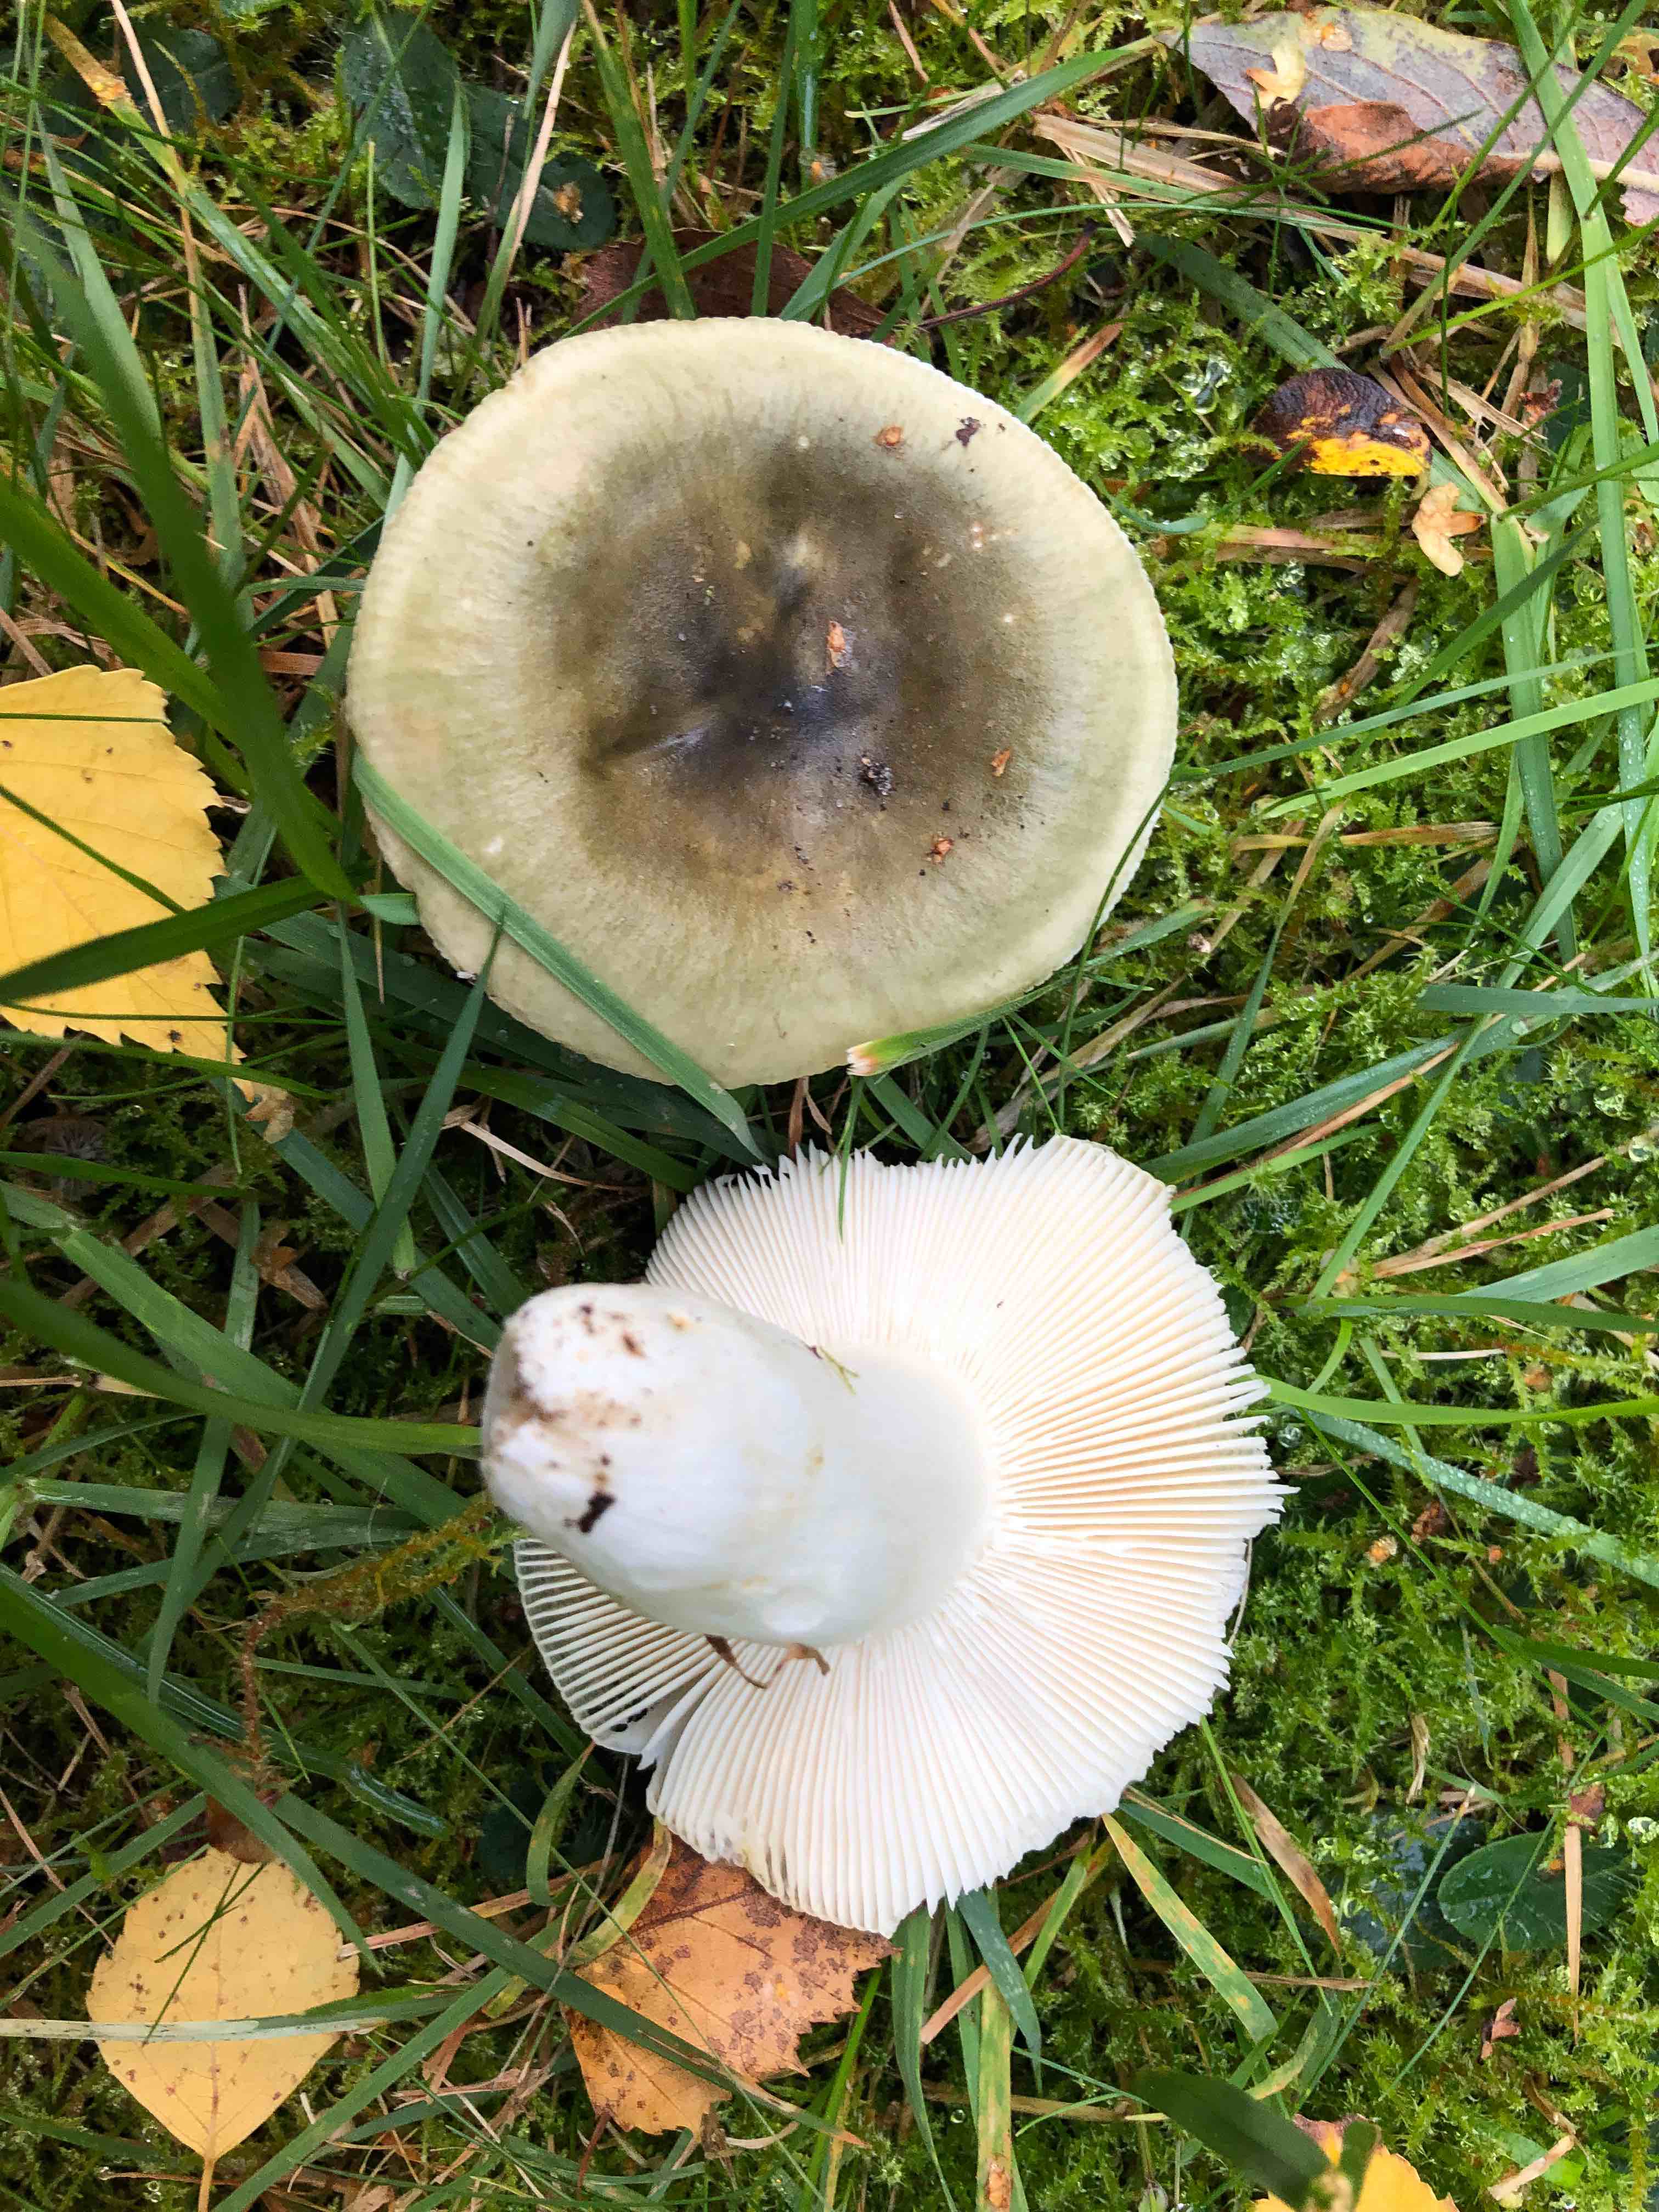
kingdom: Fungi
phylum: Basidiomycota
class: Agaricomycetes
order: Russulales
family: Russulaceae
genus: Russula
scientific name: Russula aeruginea
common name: græsgrøn skørhat
